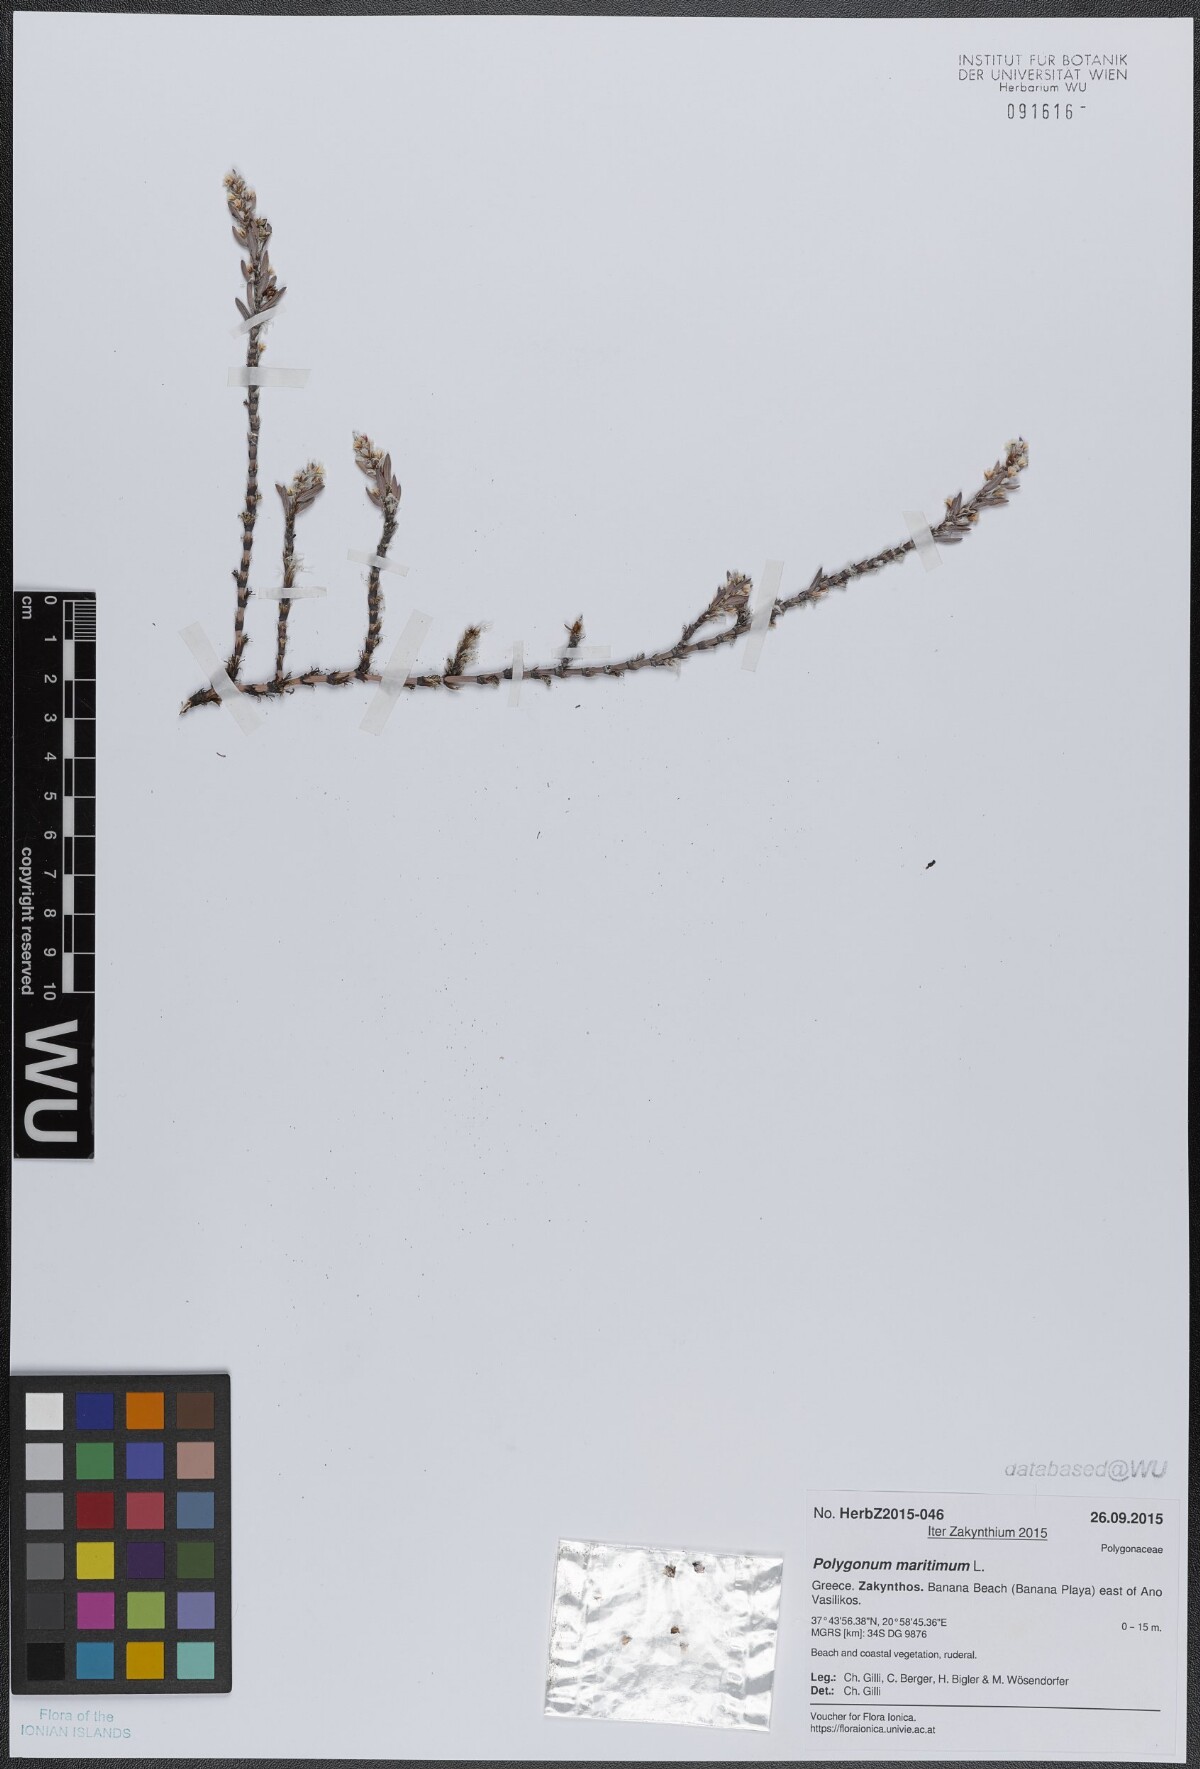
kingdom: Plantae
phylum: Tracheophyta
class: Magnoliopsida
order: Caryophyllales
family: Polygonaceae
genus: Polygonum
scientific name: Polygonum maritimum
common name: Sea knotgrass
